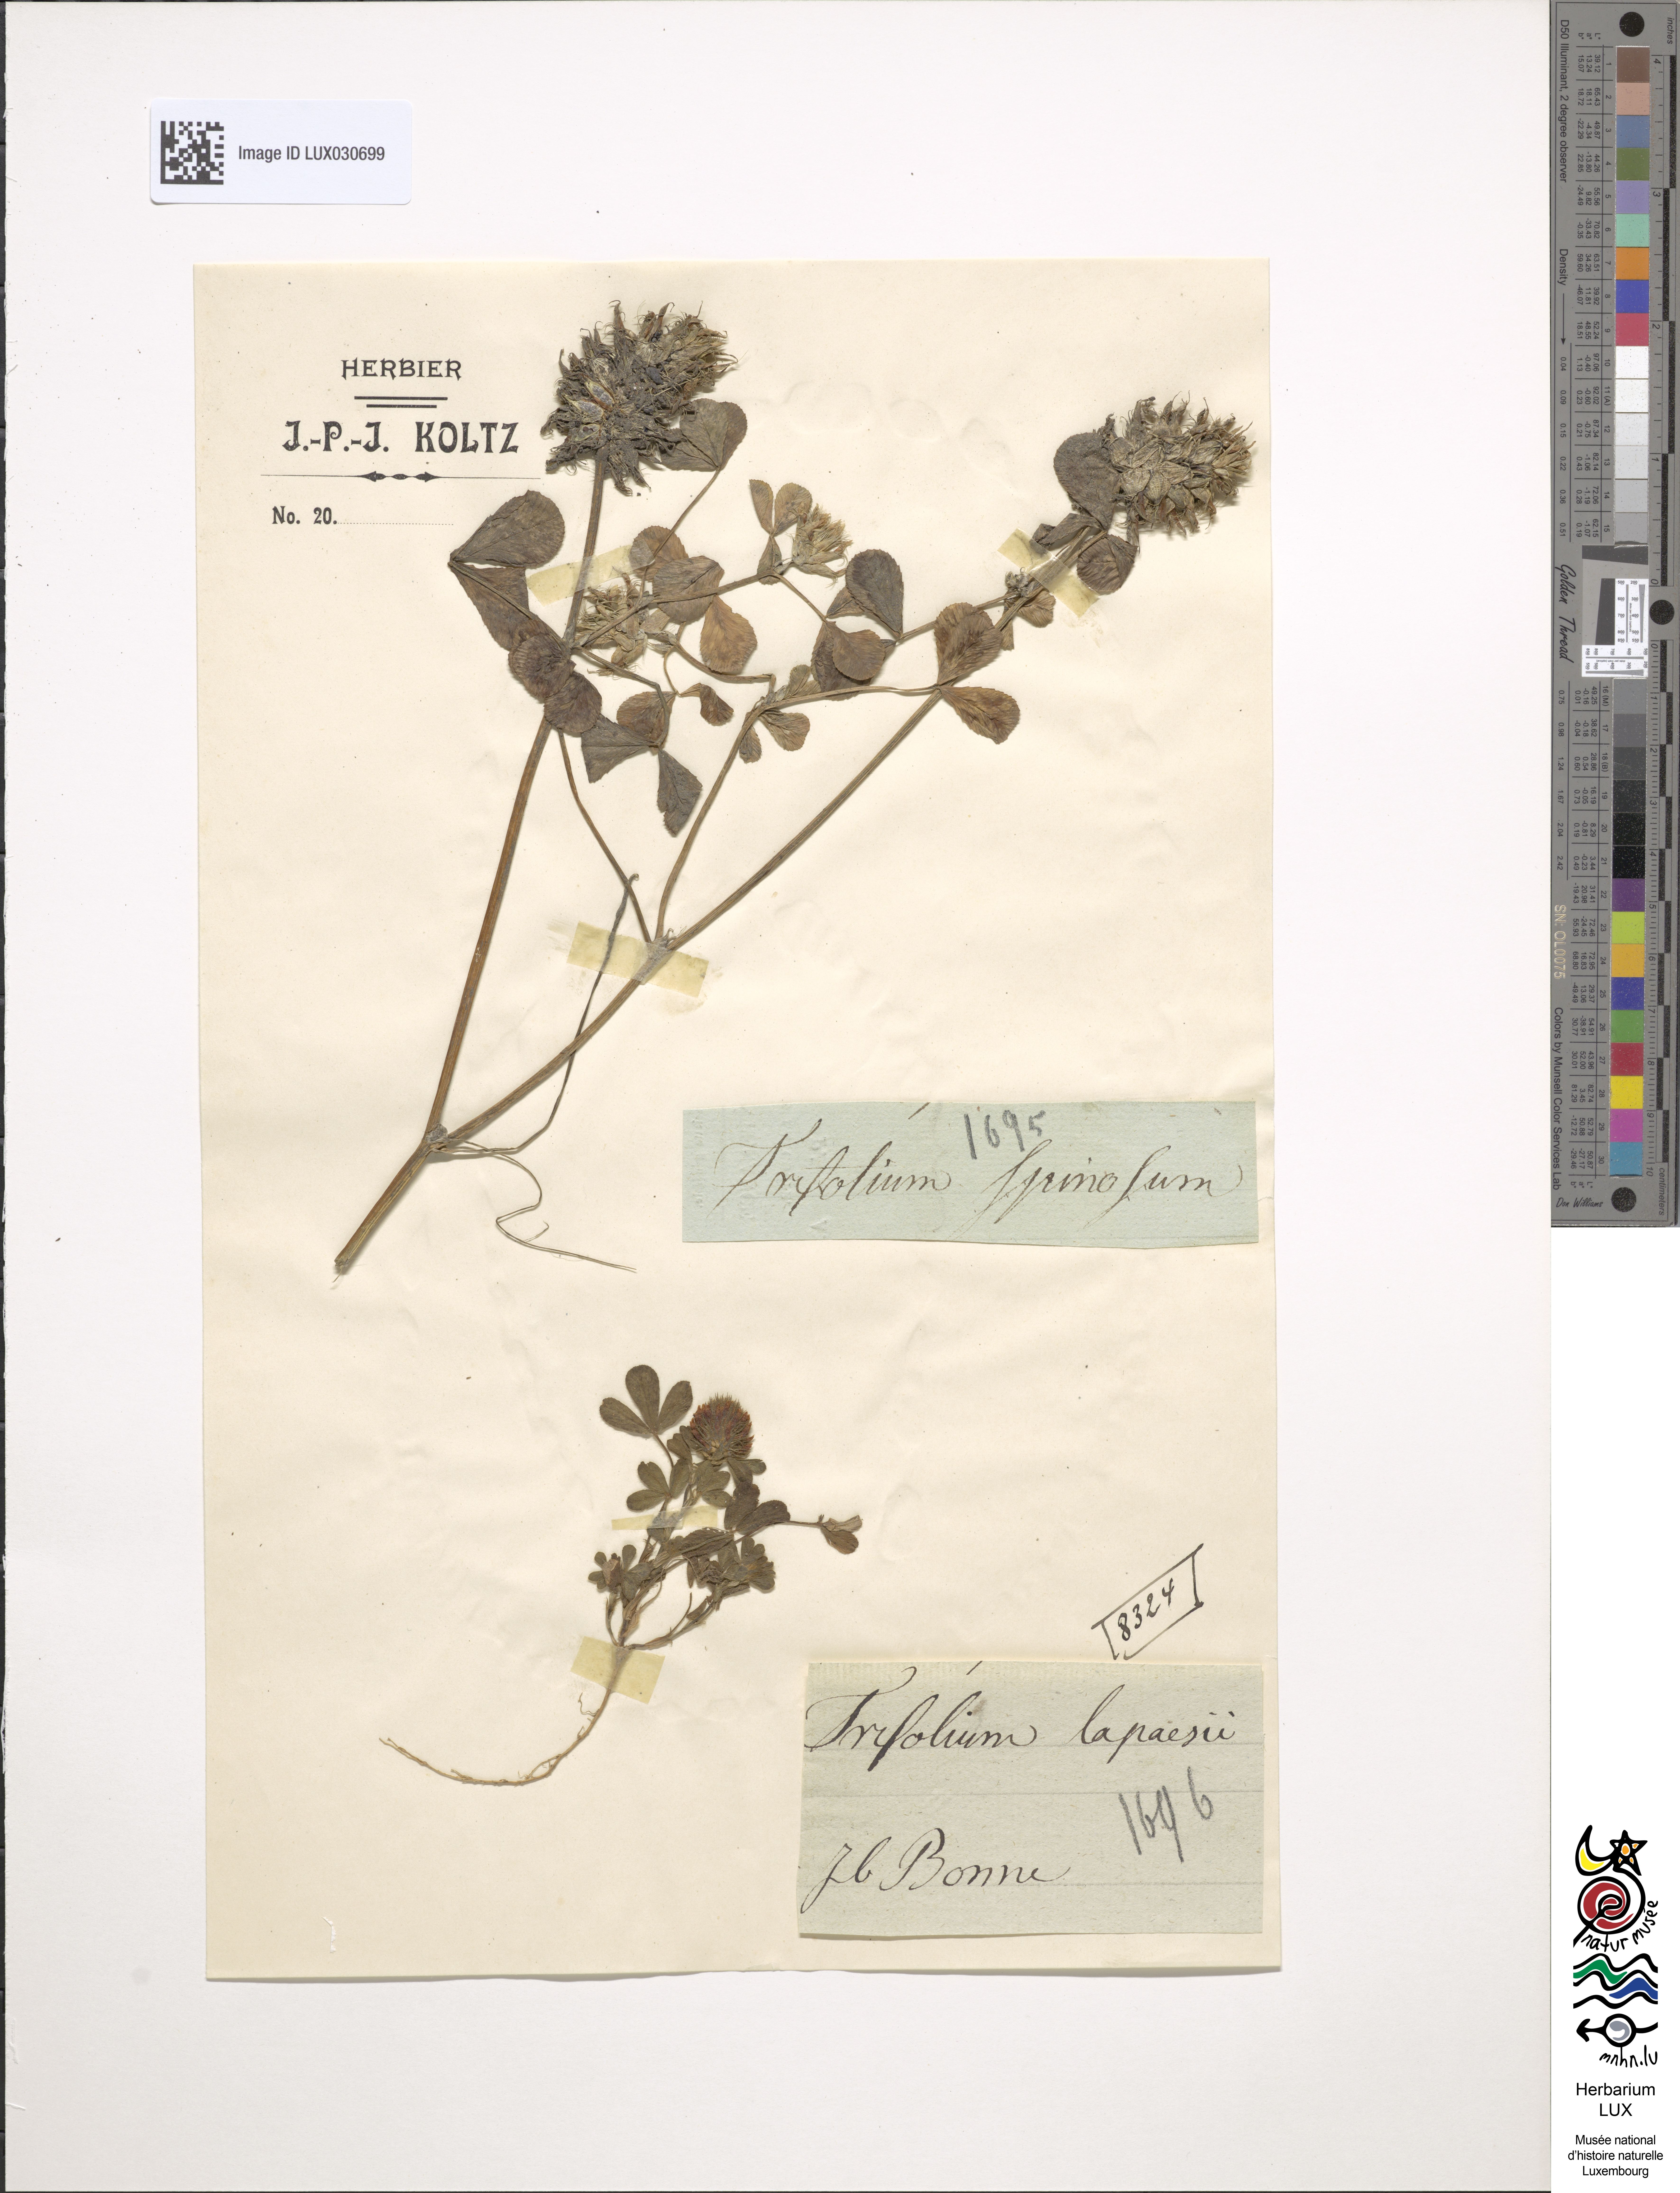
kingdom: Plantae
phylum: Tracheophyta
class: Magnoliopsida
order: Fabales
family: Fabaceae
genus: Trifolium
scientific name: Trifolium
